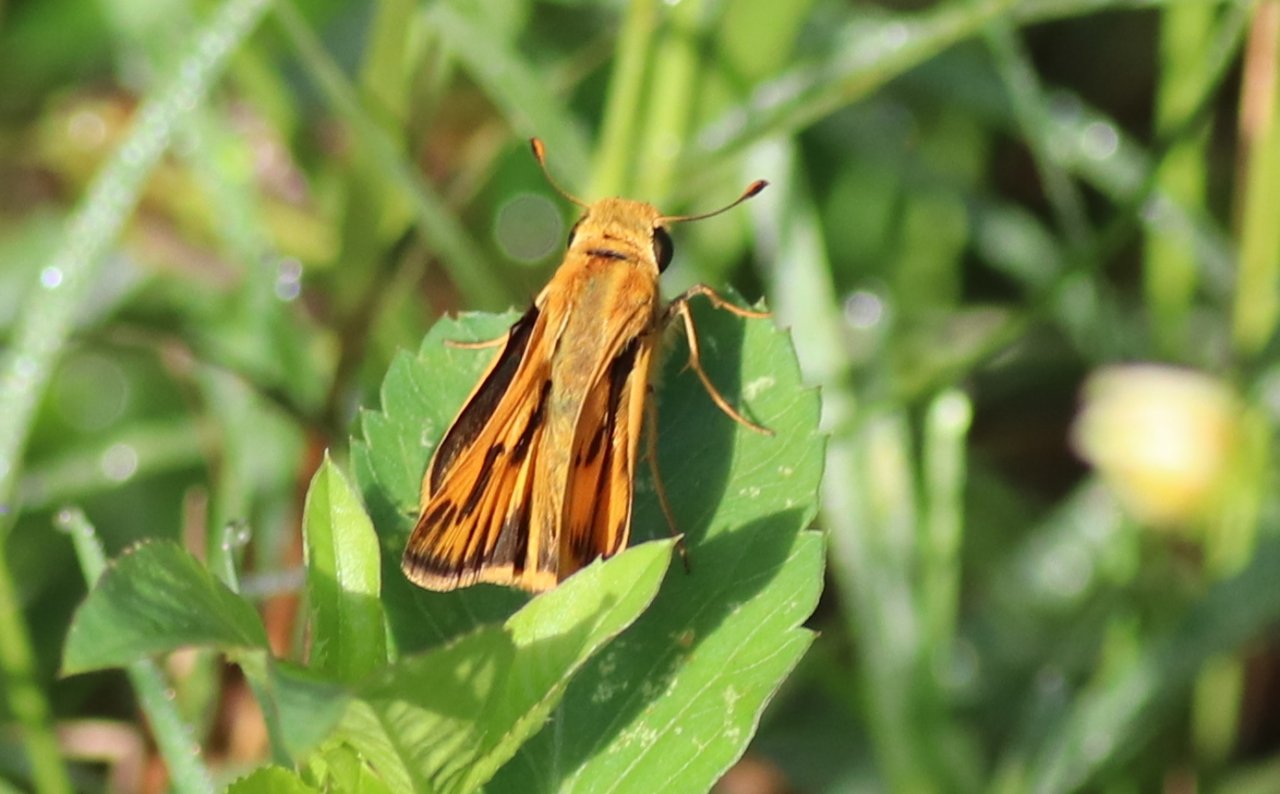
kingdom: Animalia
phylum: Arthropoda
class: Insecta
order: Lepidoptera
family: Hesperiidae
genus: Hylephila
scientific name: Hylephila phyleus
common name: Fiery Skipper
